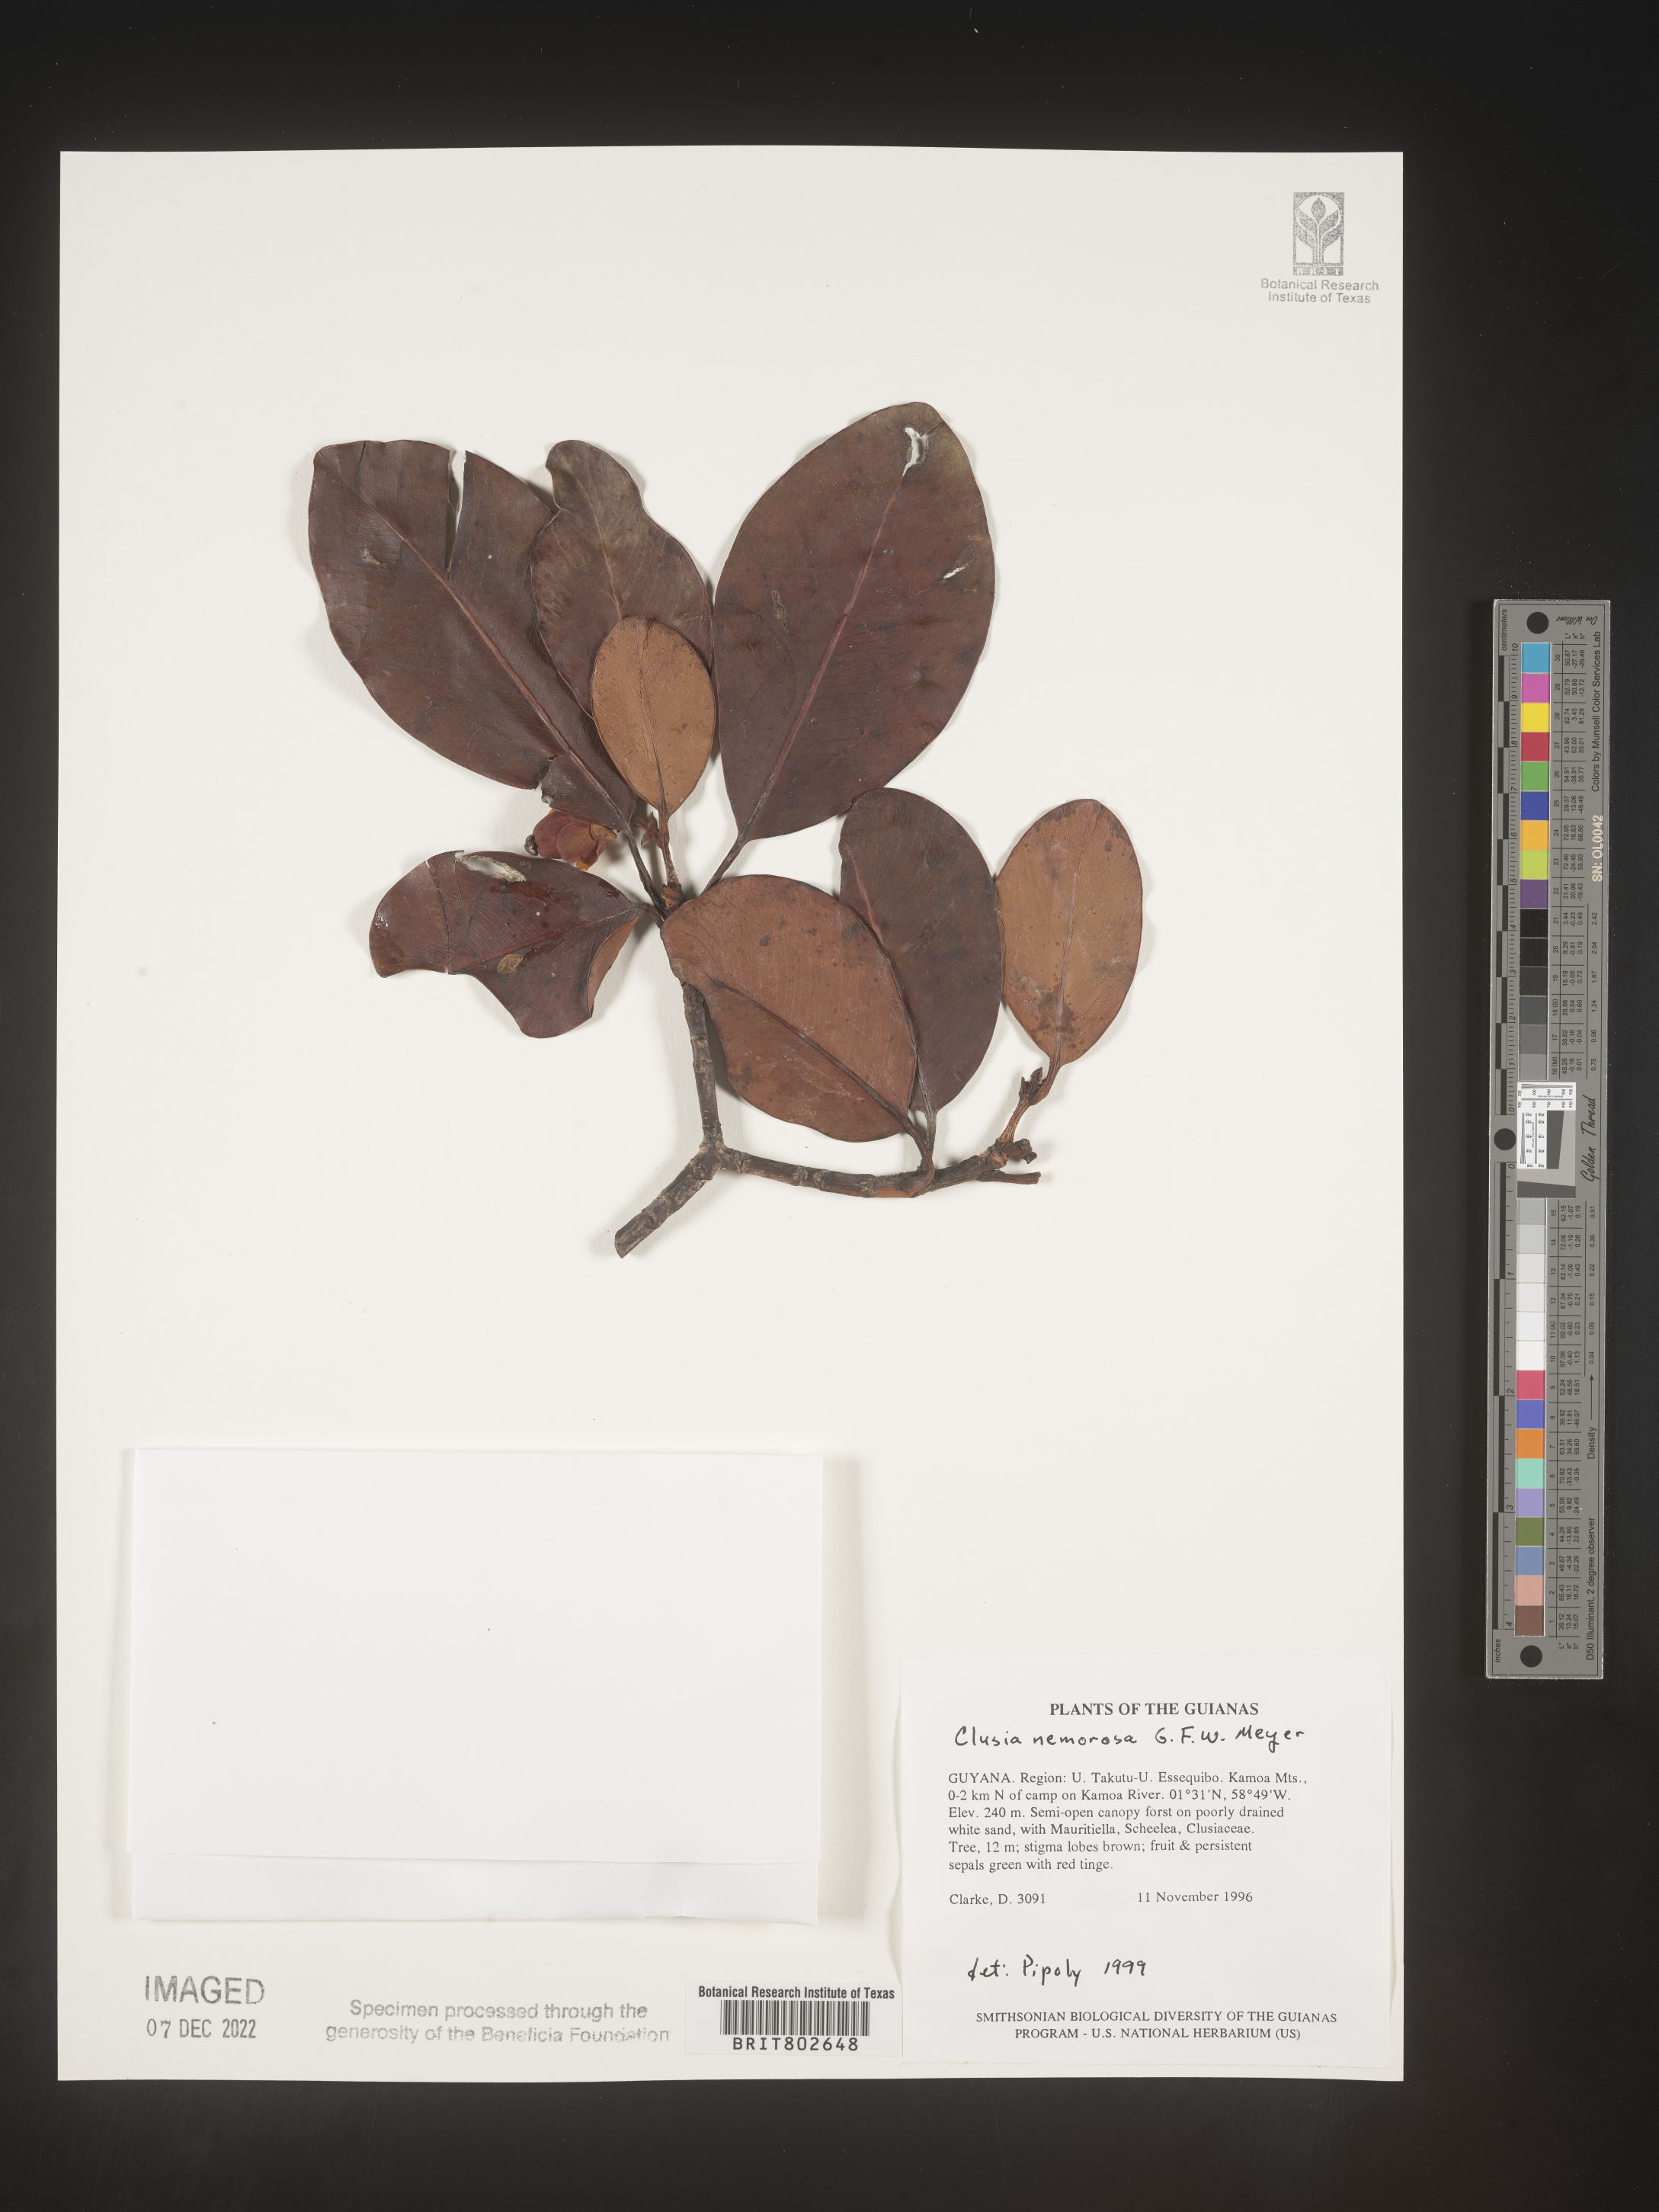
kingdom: Plantae
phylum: Tracheophyta
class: Magnoliopsida
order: Malpighiales
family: Clusiaceae
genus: Clusia
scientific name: Clusia nemorosa
